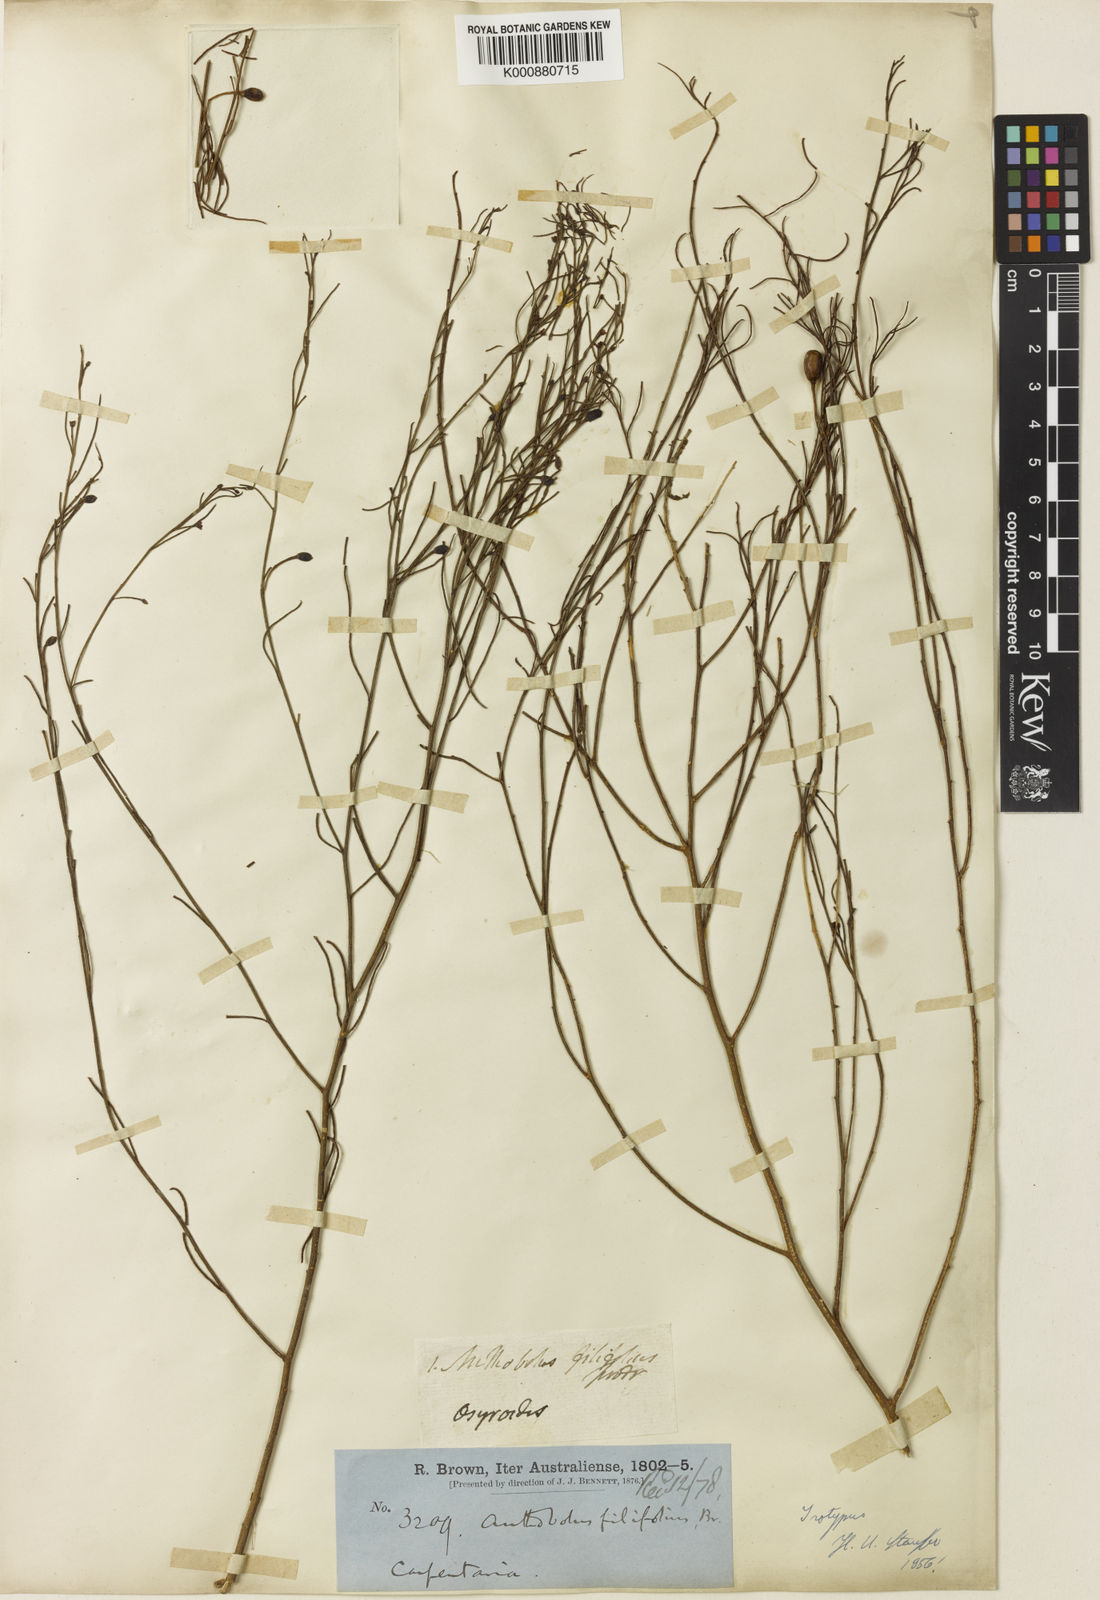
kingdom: Plantae
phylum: Tracheophyta
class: Magnoliopsida
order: Santalales
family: Opiliaceae
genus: Anthobolus
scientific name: Anthobolus filifolius
